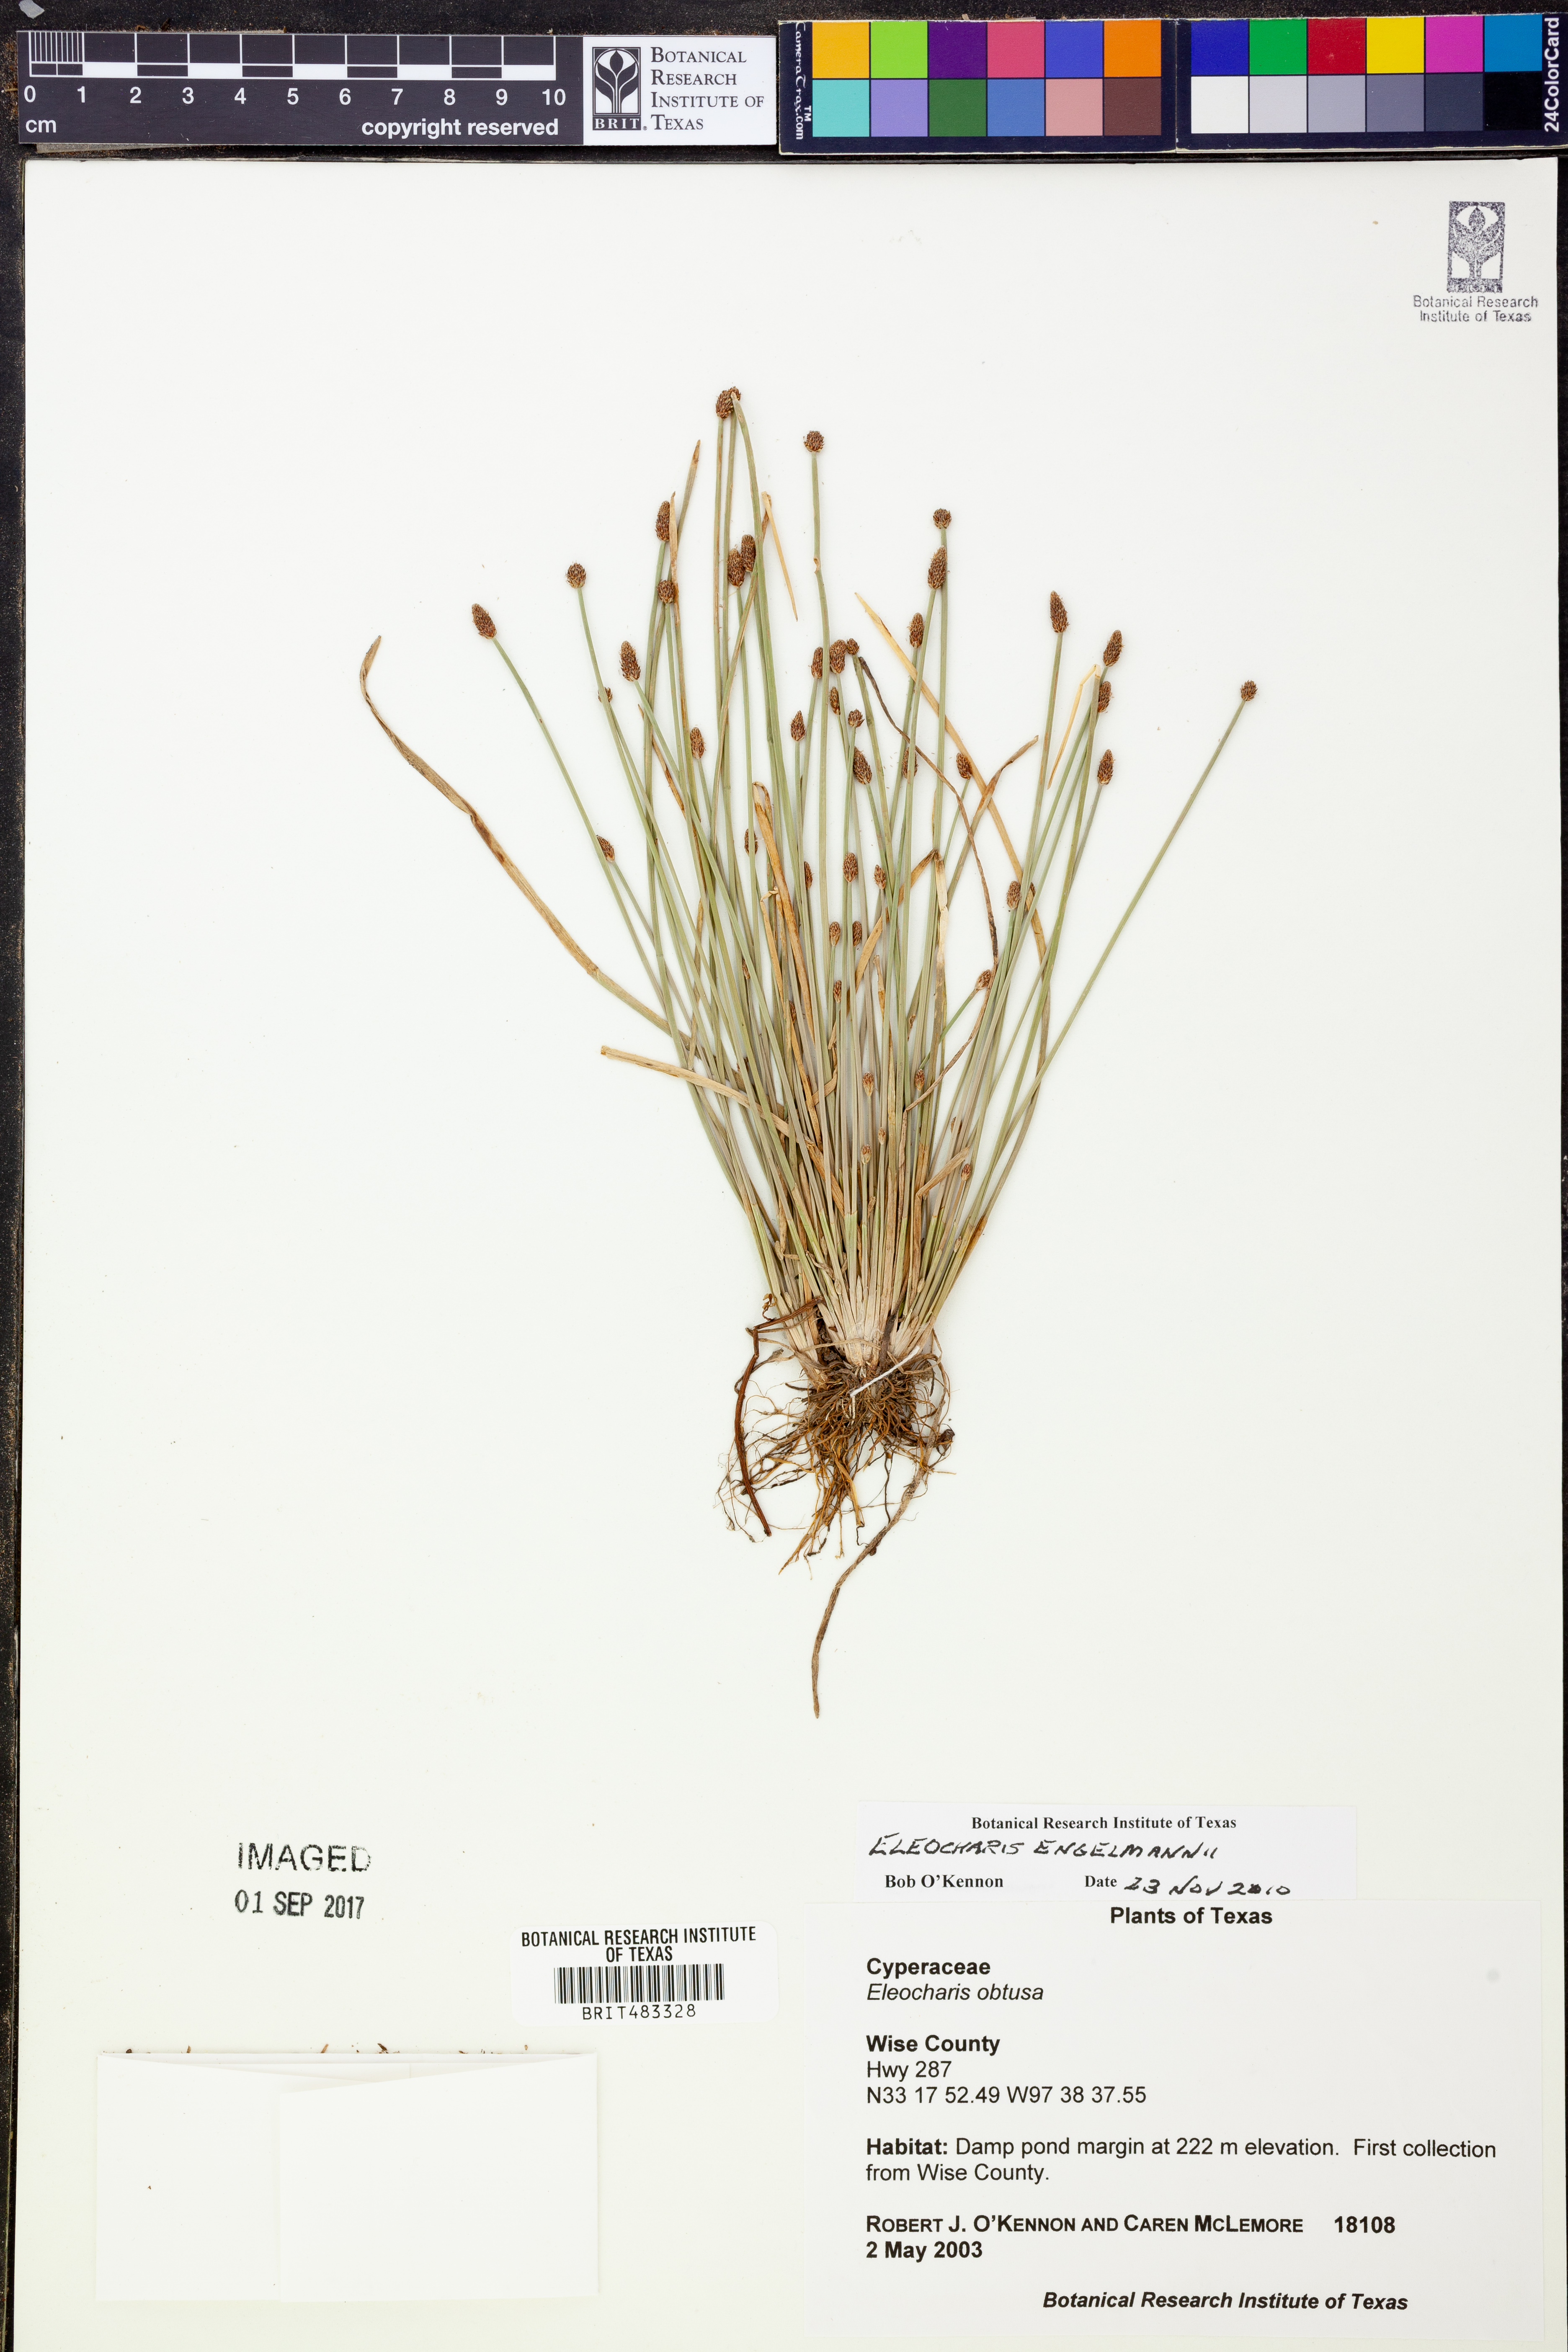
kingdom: Plantae
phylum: Tracheophyta
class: Liliopsida
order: Poales
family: Cyperaceae
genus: Eleocharis
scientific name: Eleocharis engelmannii
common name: Engelmann's spikerush
